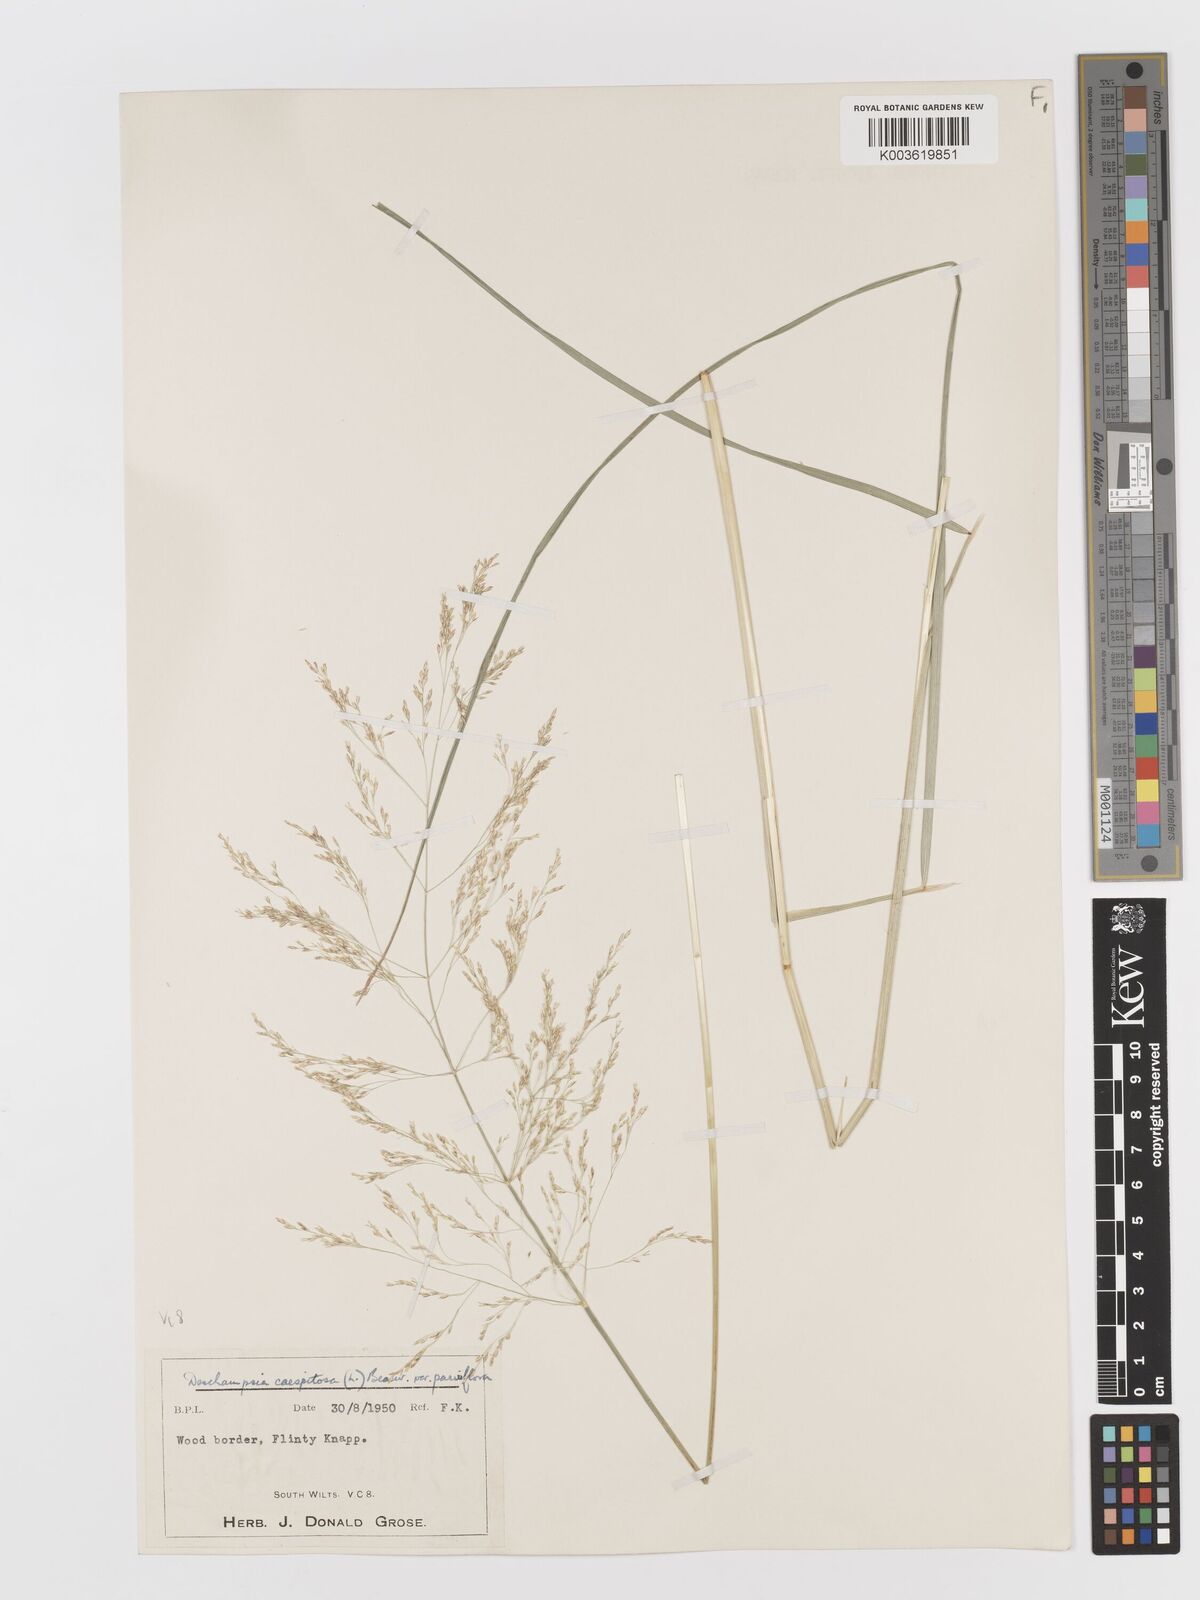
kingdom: Plantae
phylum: Tracheophyta
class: Liliopsida
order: Poales
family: Poaceae
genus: Deschampsia
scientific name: Deschampsia cespitosa
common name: Tufted hair-grass
